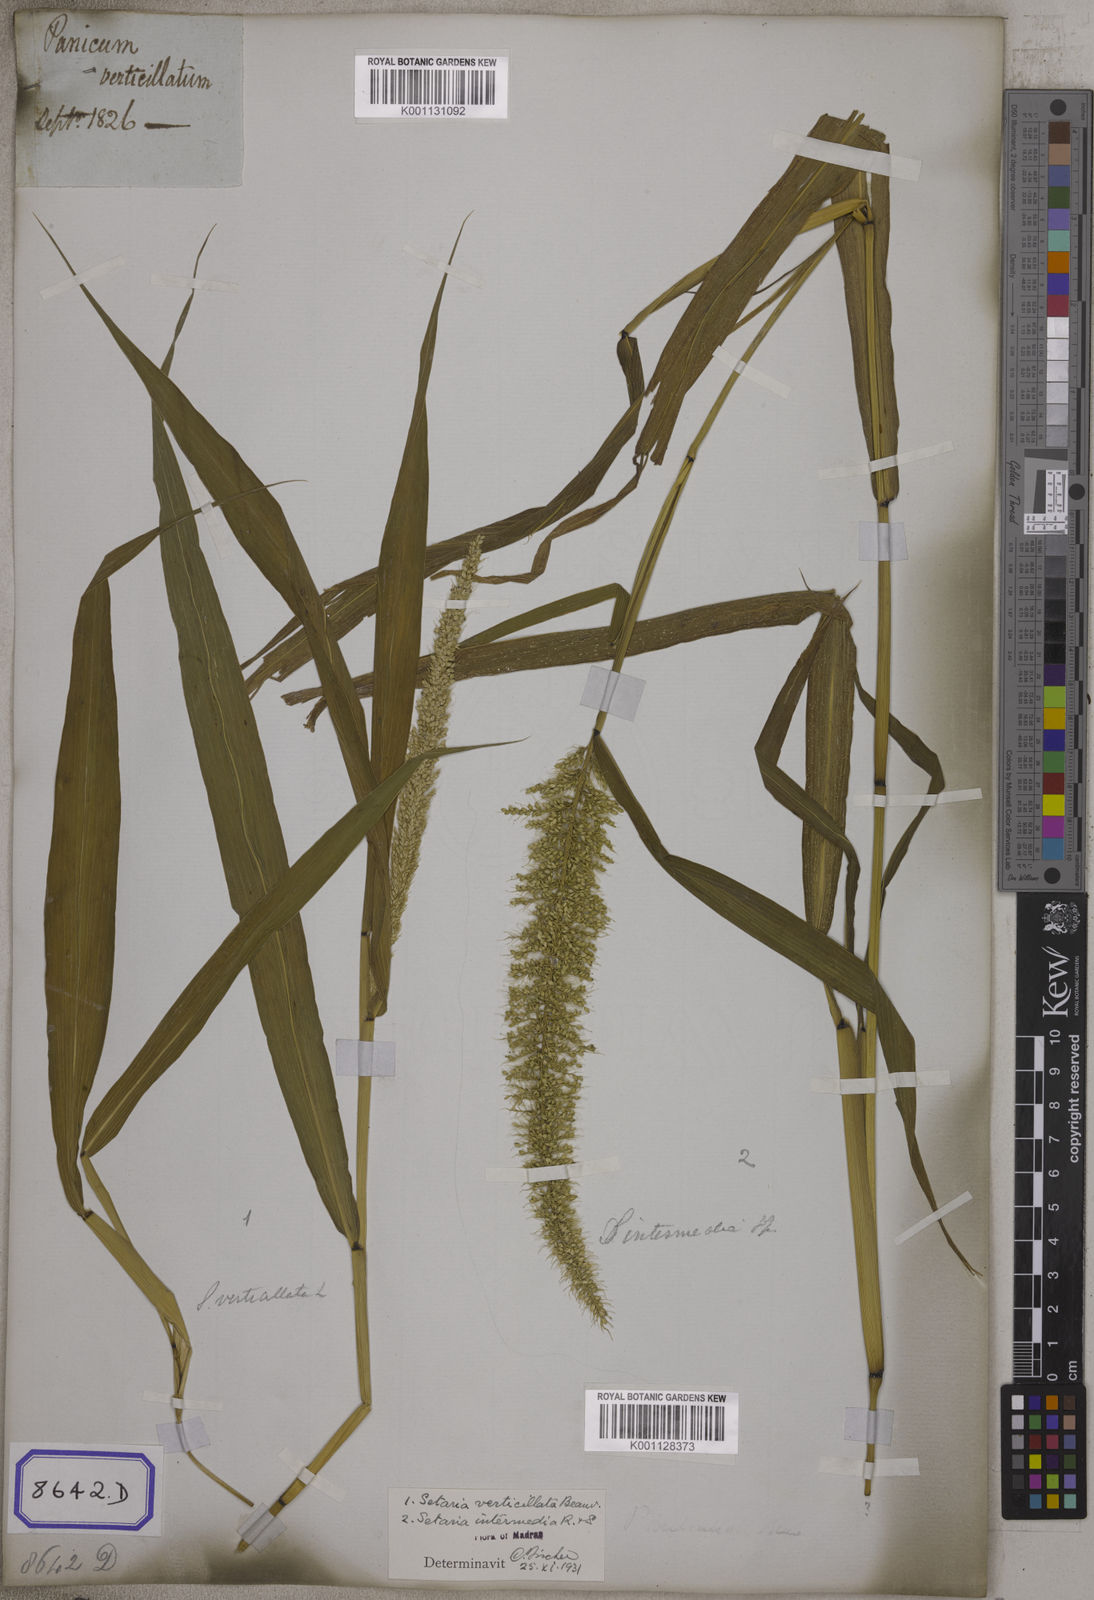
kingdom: Plantae
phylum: Tracheophyta
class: Liliopsida
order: Poales
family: Poaceae
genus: Setaria
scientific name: Setaria verticillata
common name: Hooked bristlegrass
